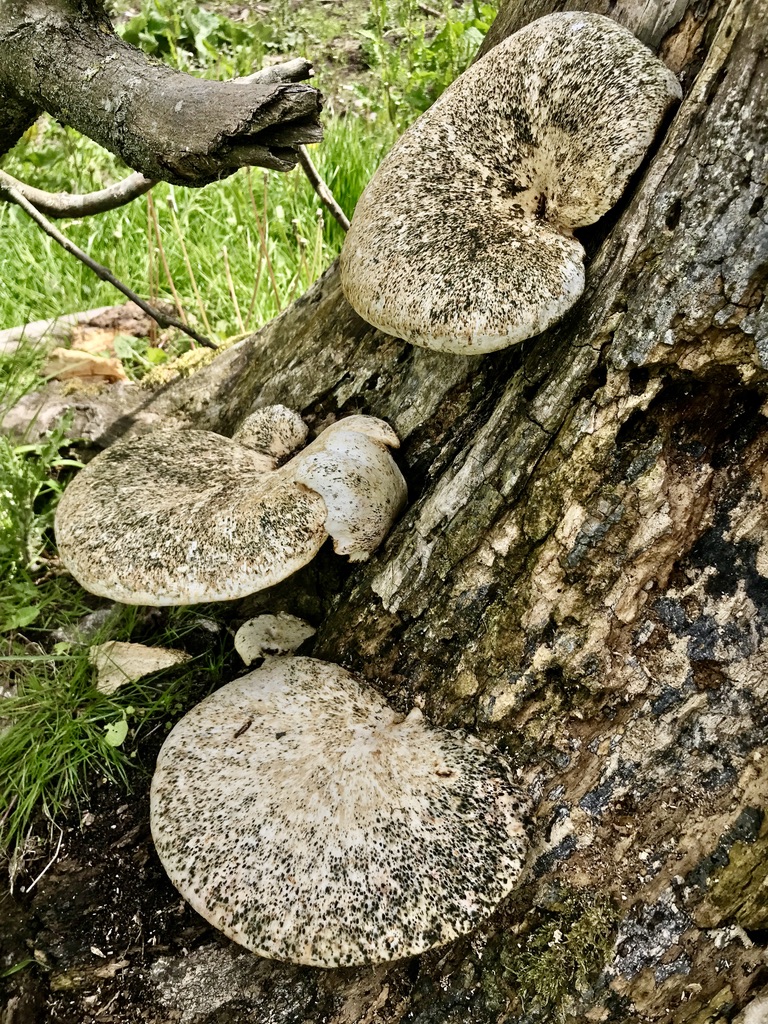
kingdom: Fungi
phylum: Basidiomycota
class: Agaricomycetes
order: Polyporales
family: Polyporaceae
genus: Cerioporus
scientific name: Cerioporus squamosus
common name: skællet stilkporesvamp
